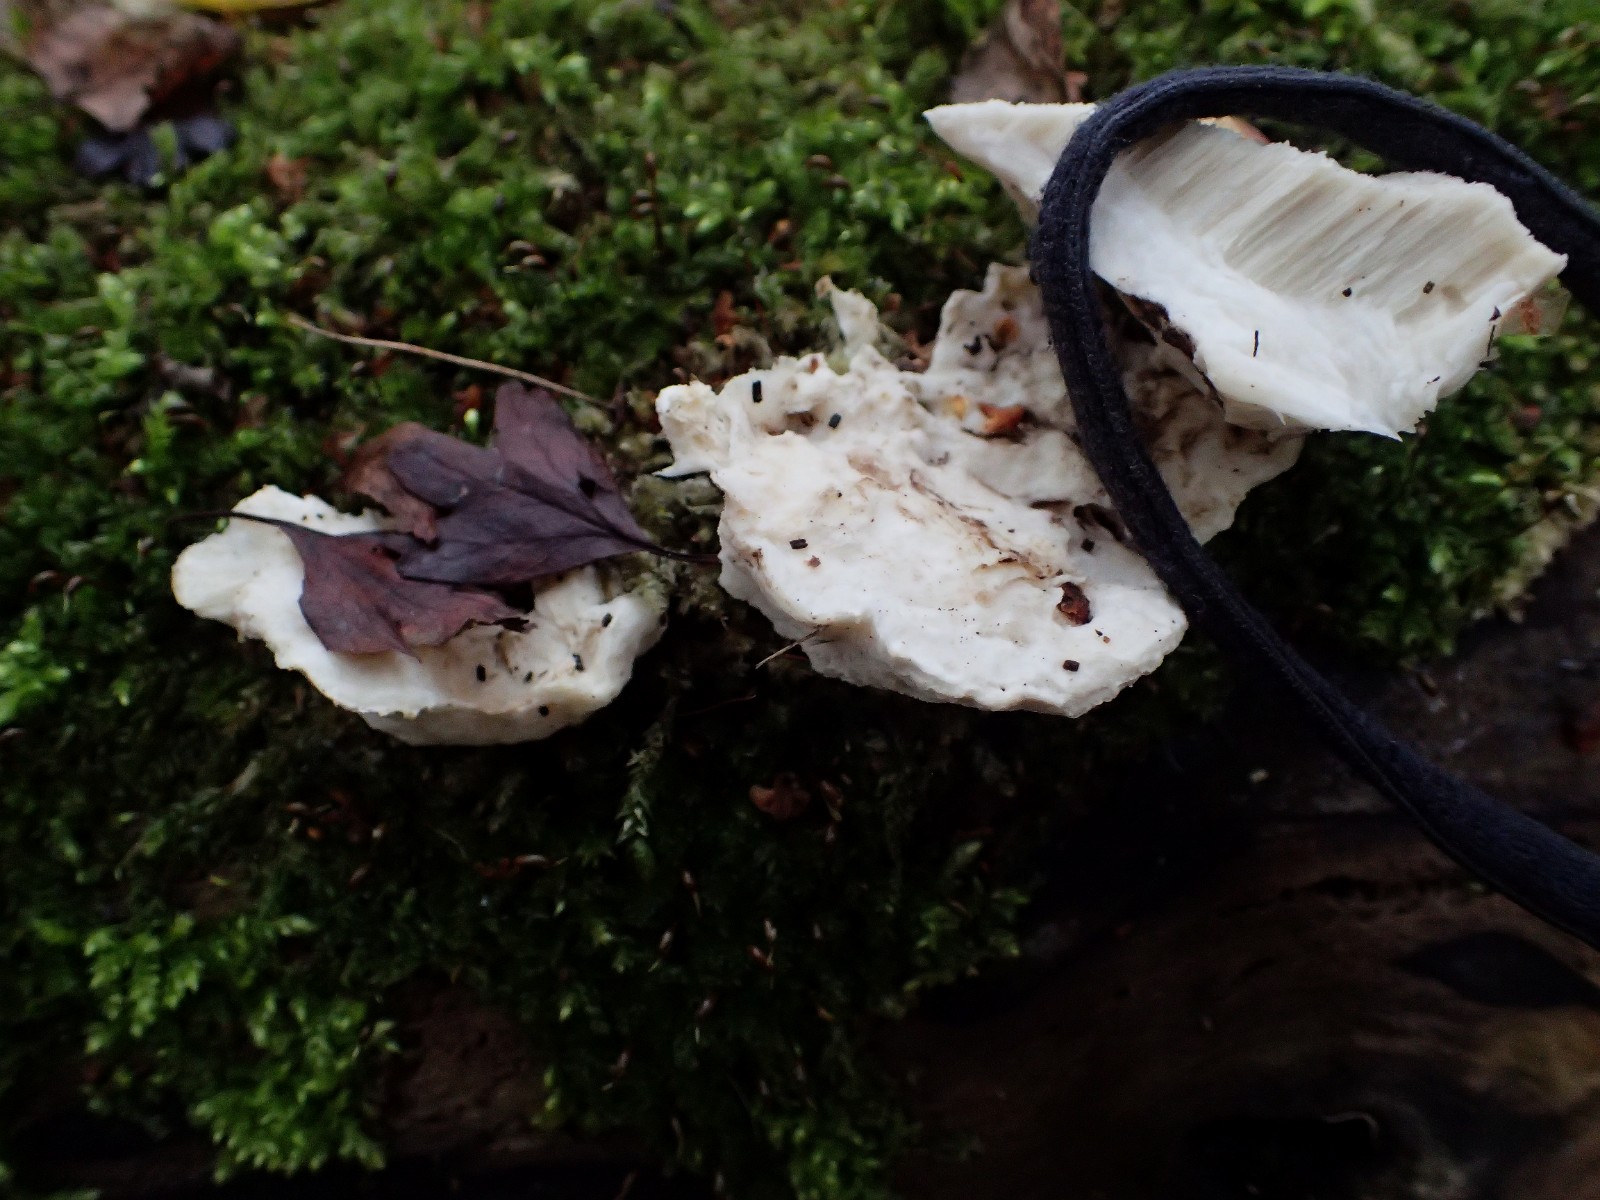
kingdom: Fungi
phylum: Basidiomycota
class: Agaricomycetes
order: Polyporales
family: Incrustoporiaceae
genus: Tyromyces
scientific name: Tyromyces lacteus
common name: mælkehvid kødporesvamp
